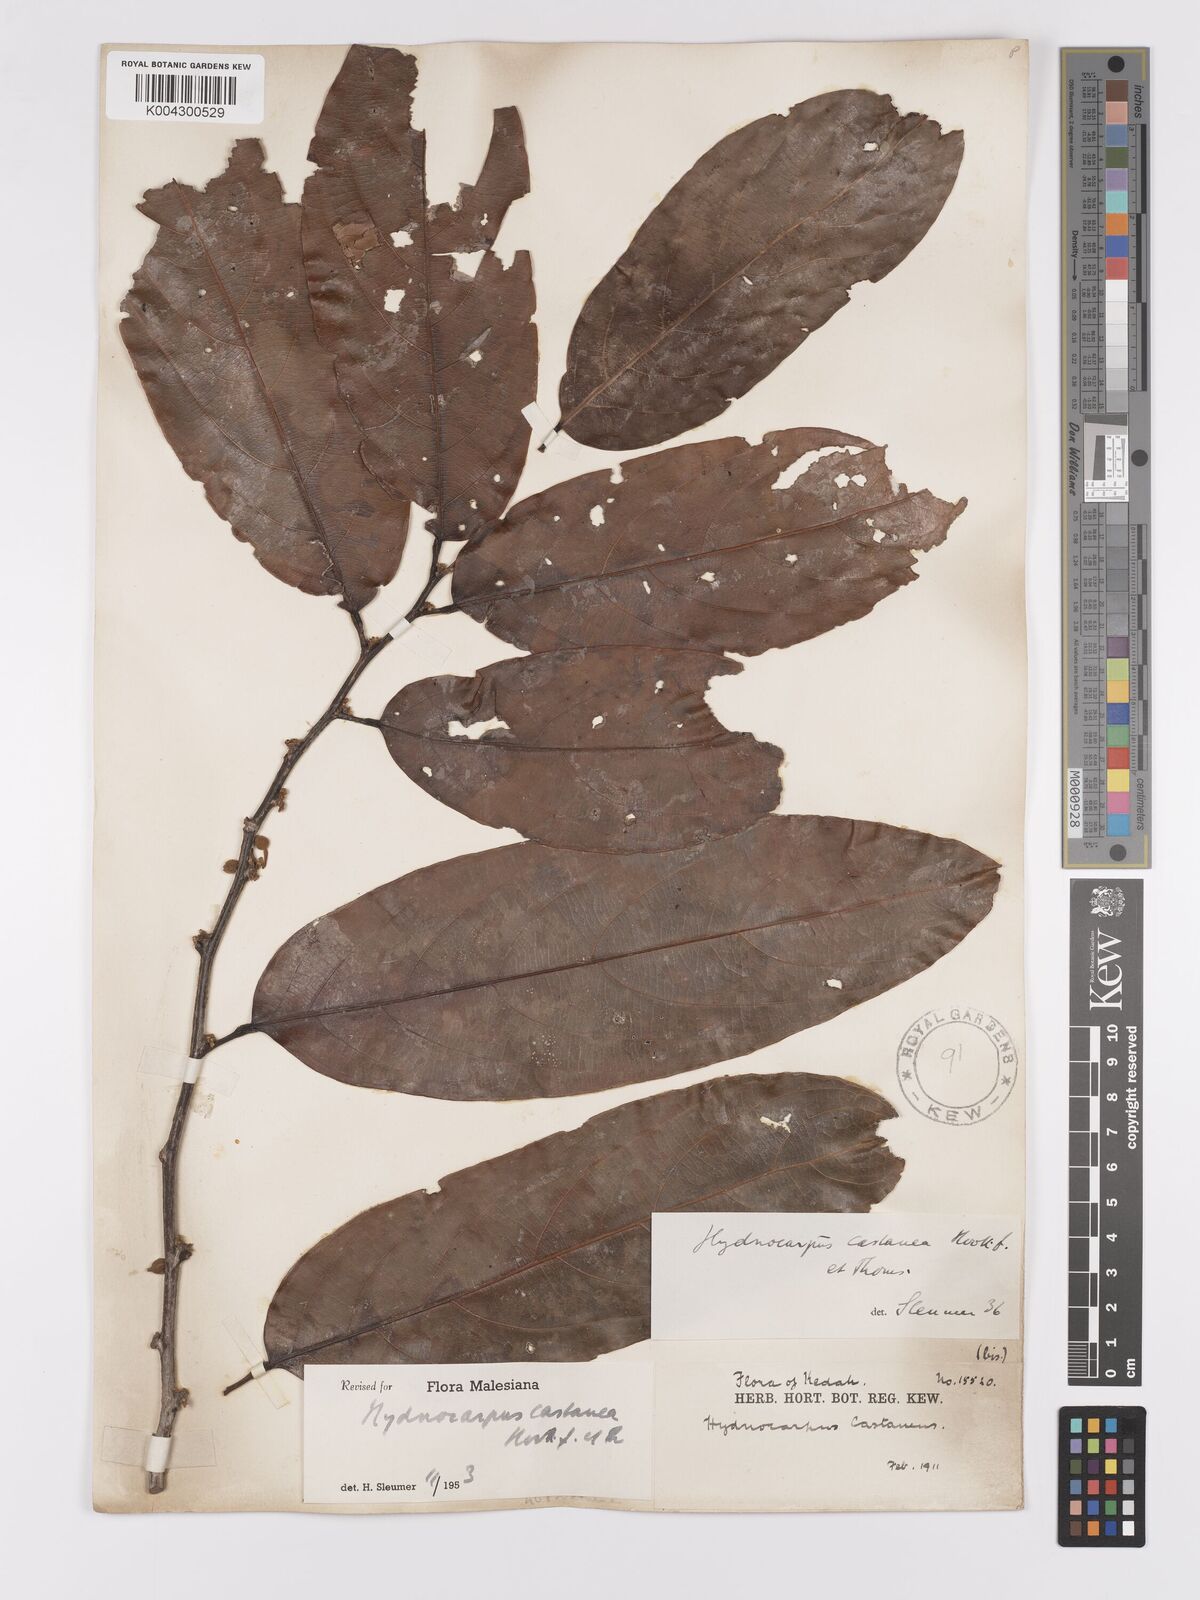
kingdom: Plantae
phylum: Tracheophyta
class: Magnoliopsida
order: Malpighiales
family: Achariaceae
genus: Hydnocarpus
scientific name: Hydnocarpus castaneus
